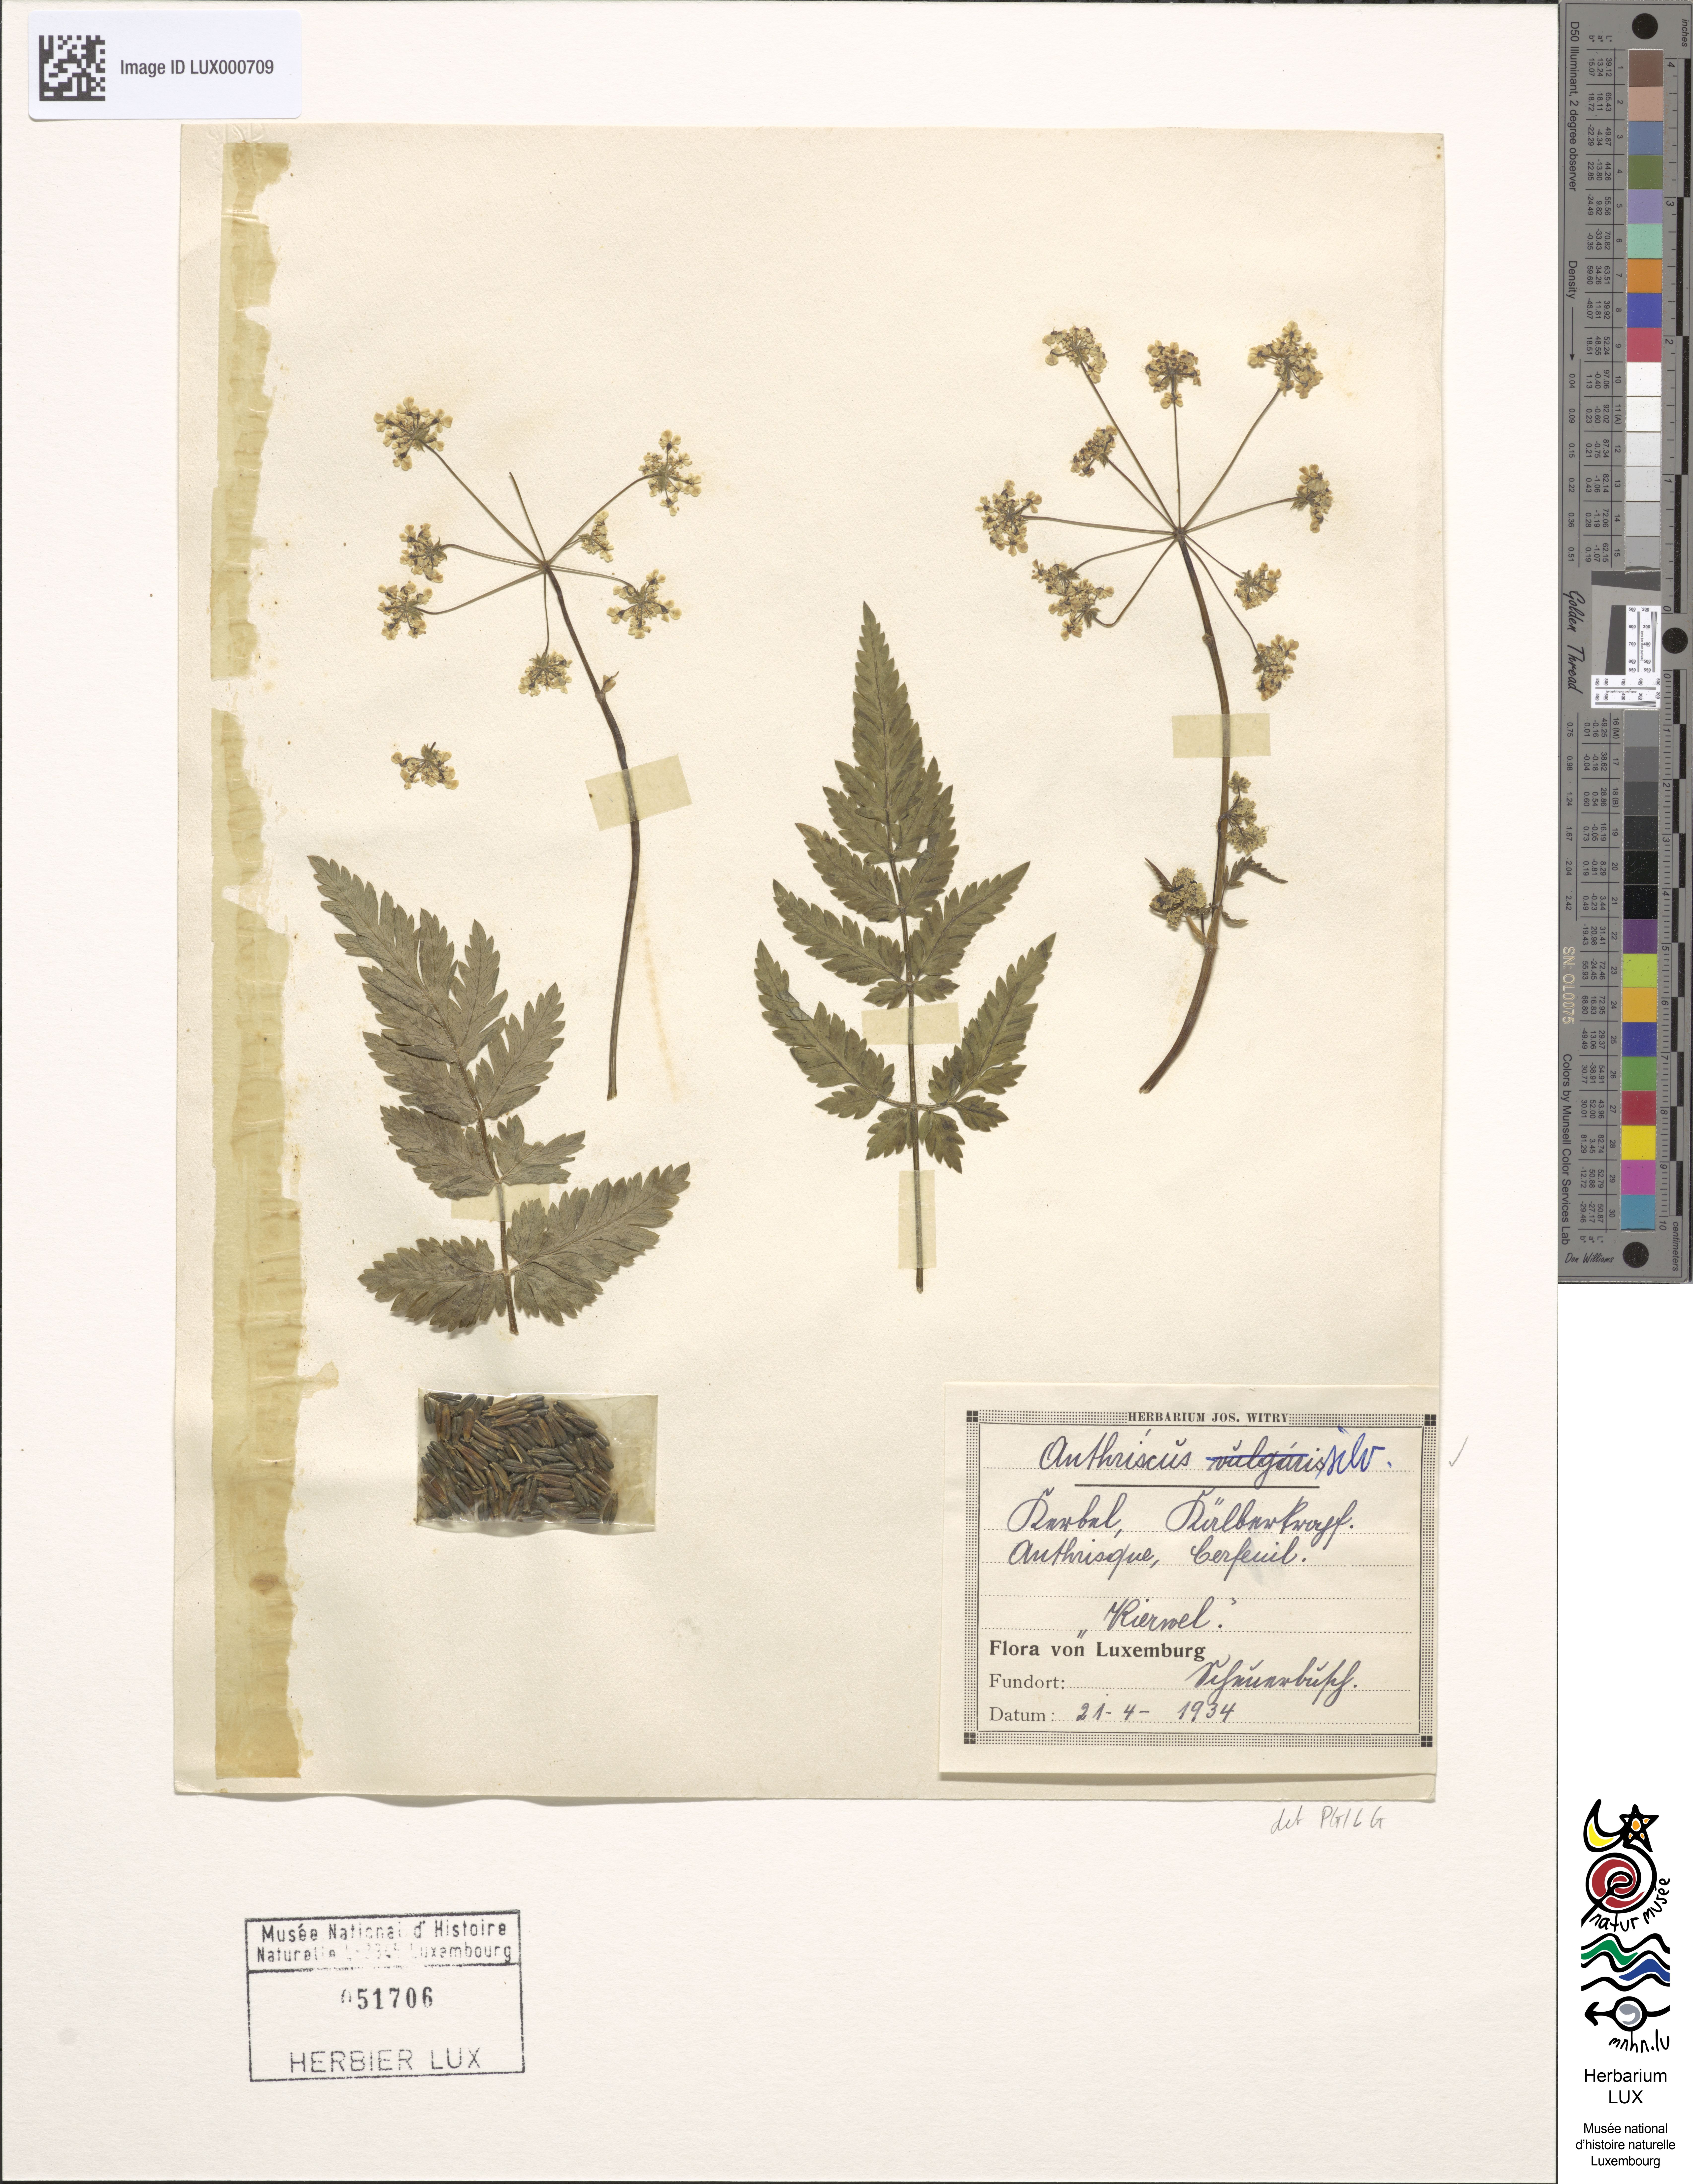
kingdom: Plantae
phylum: Tracheophyta
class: Magnoliopsida
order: Apiales
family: Apiaceae
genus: Anthriscus
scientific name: Anthriscus sylvestris
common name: Cow parsley
